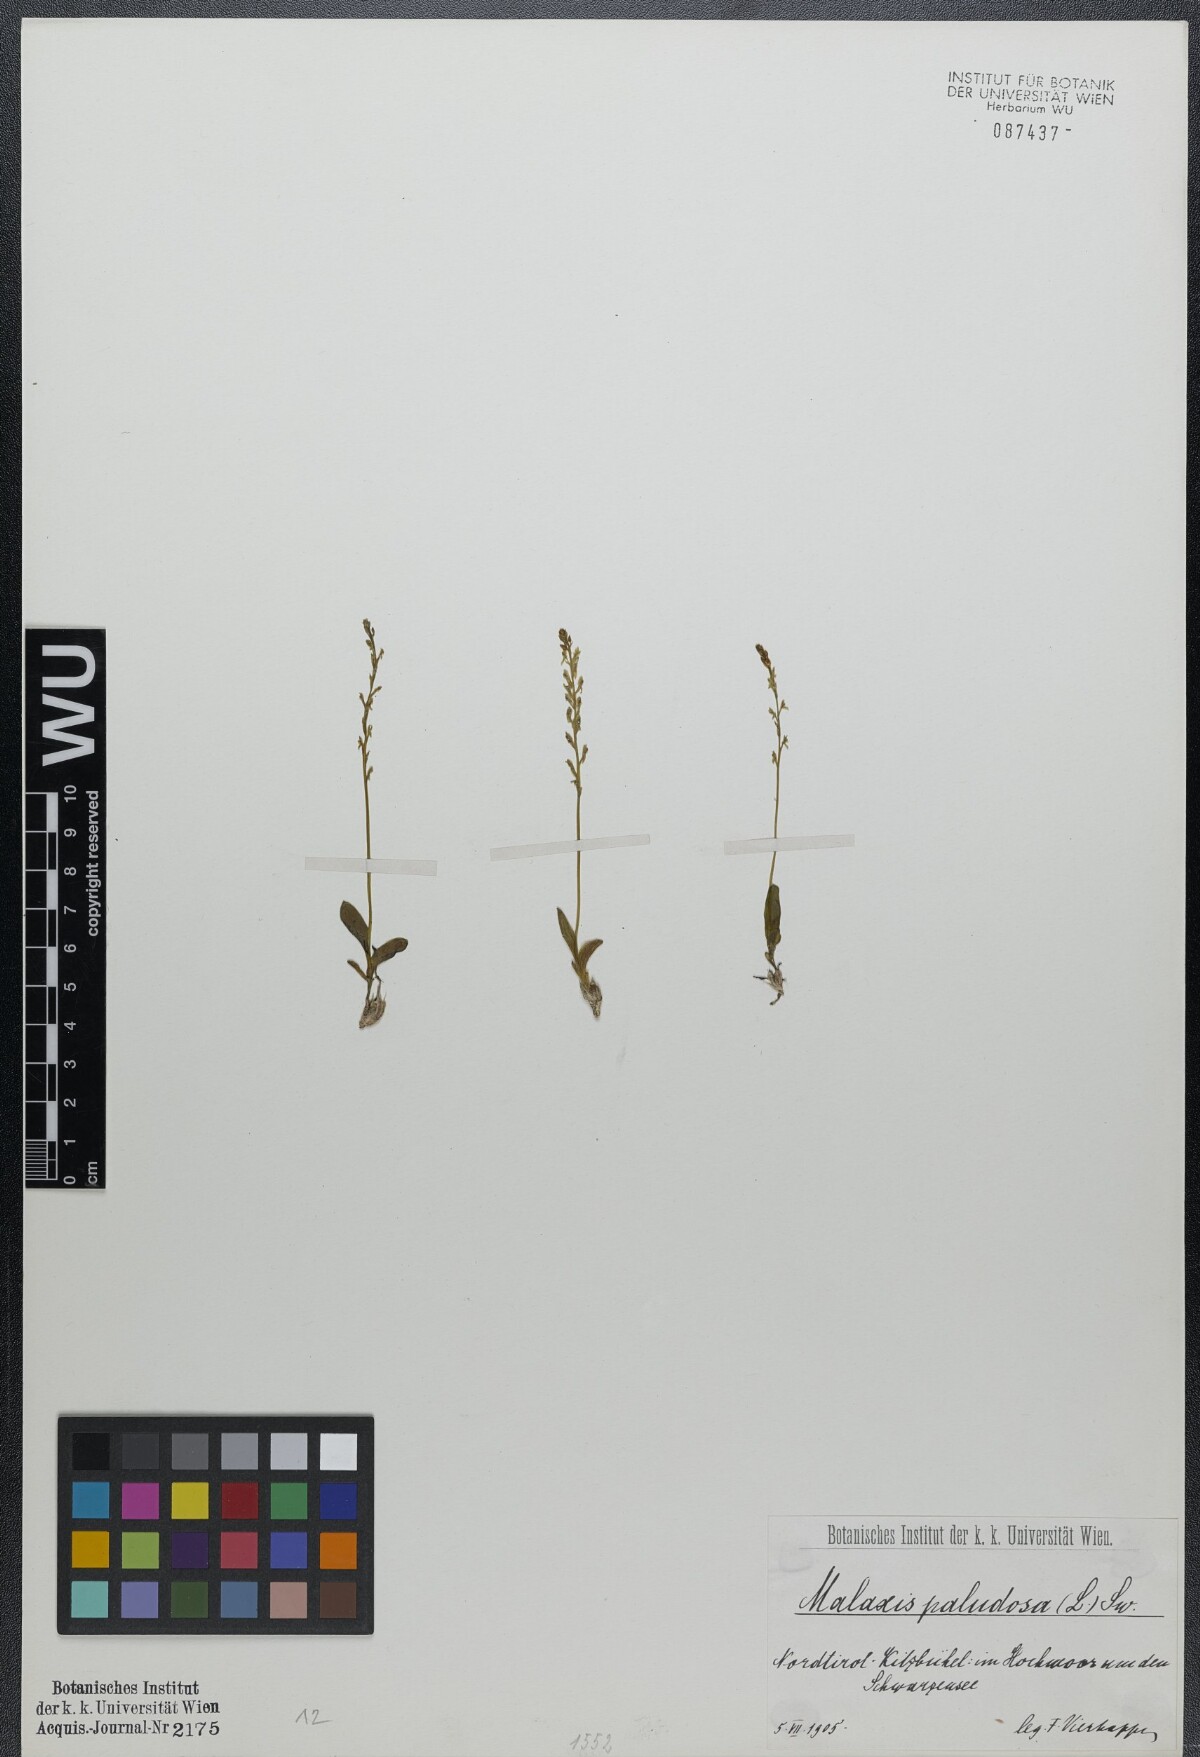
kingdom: Plantae
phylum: Tracheophyta
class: Liliopsida
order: Asparagales
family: Orchidaceae
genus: Hammarbya
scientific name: Hammarbya paludosa
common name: Bog orchid
